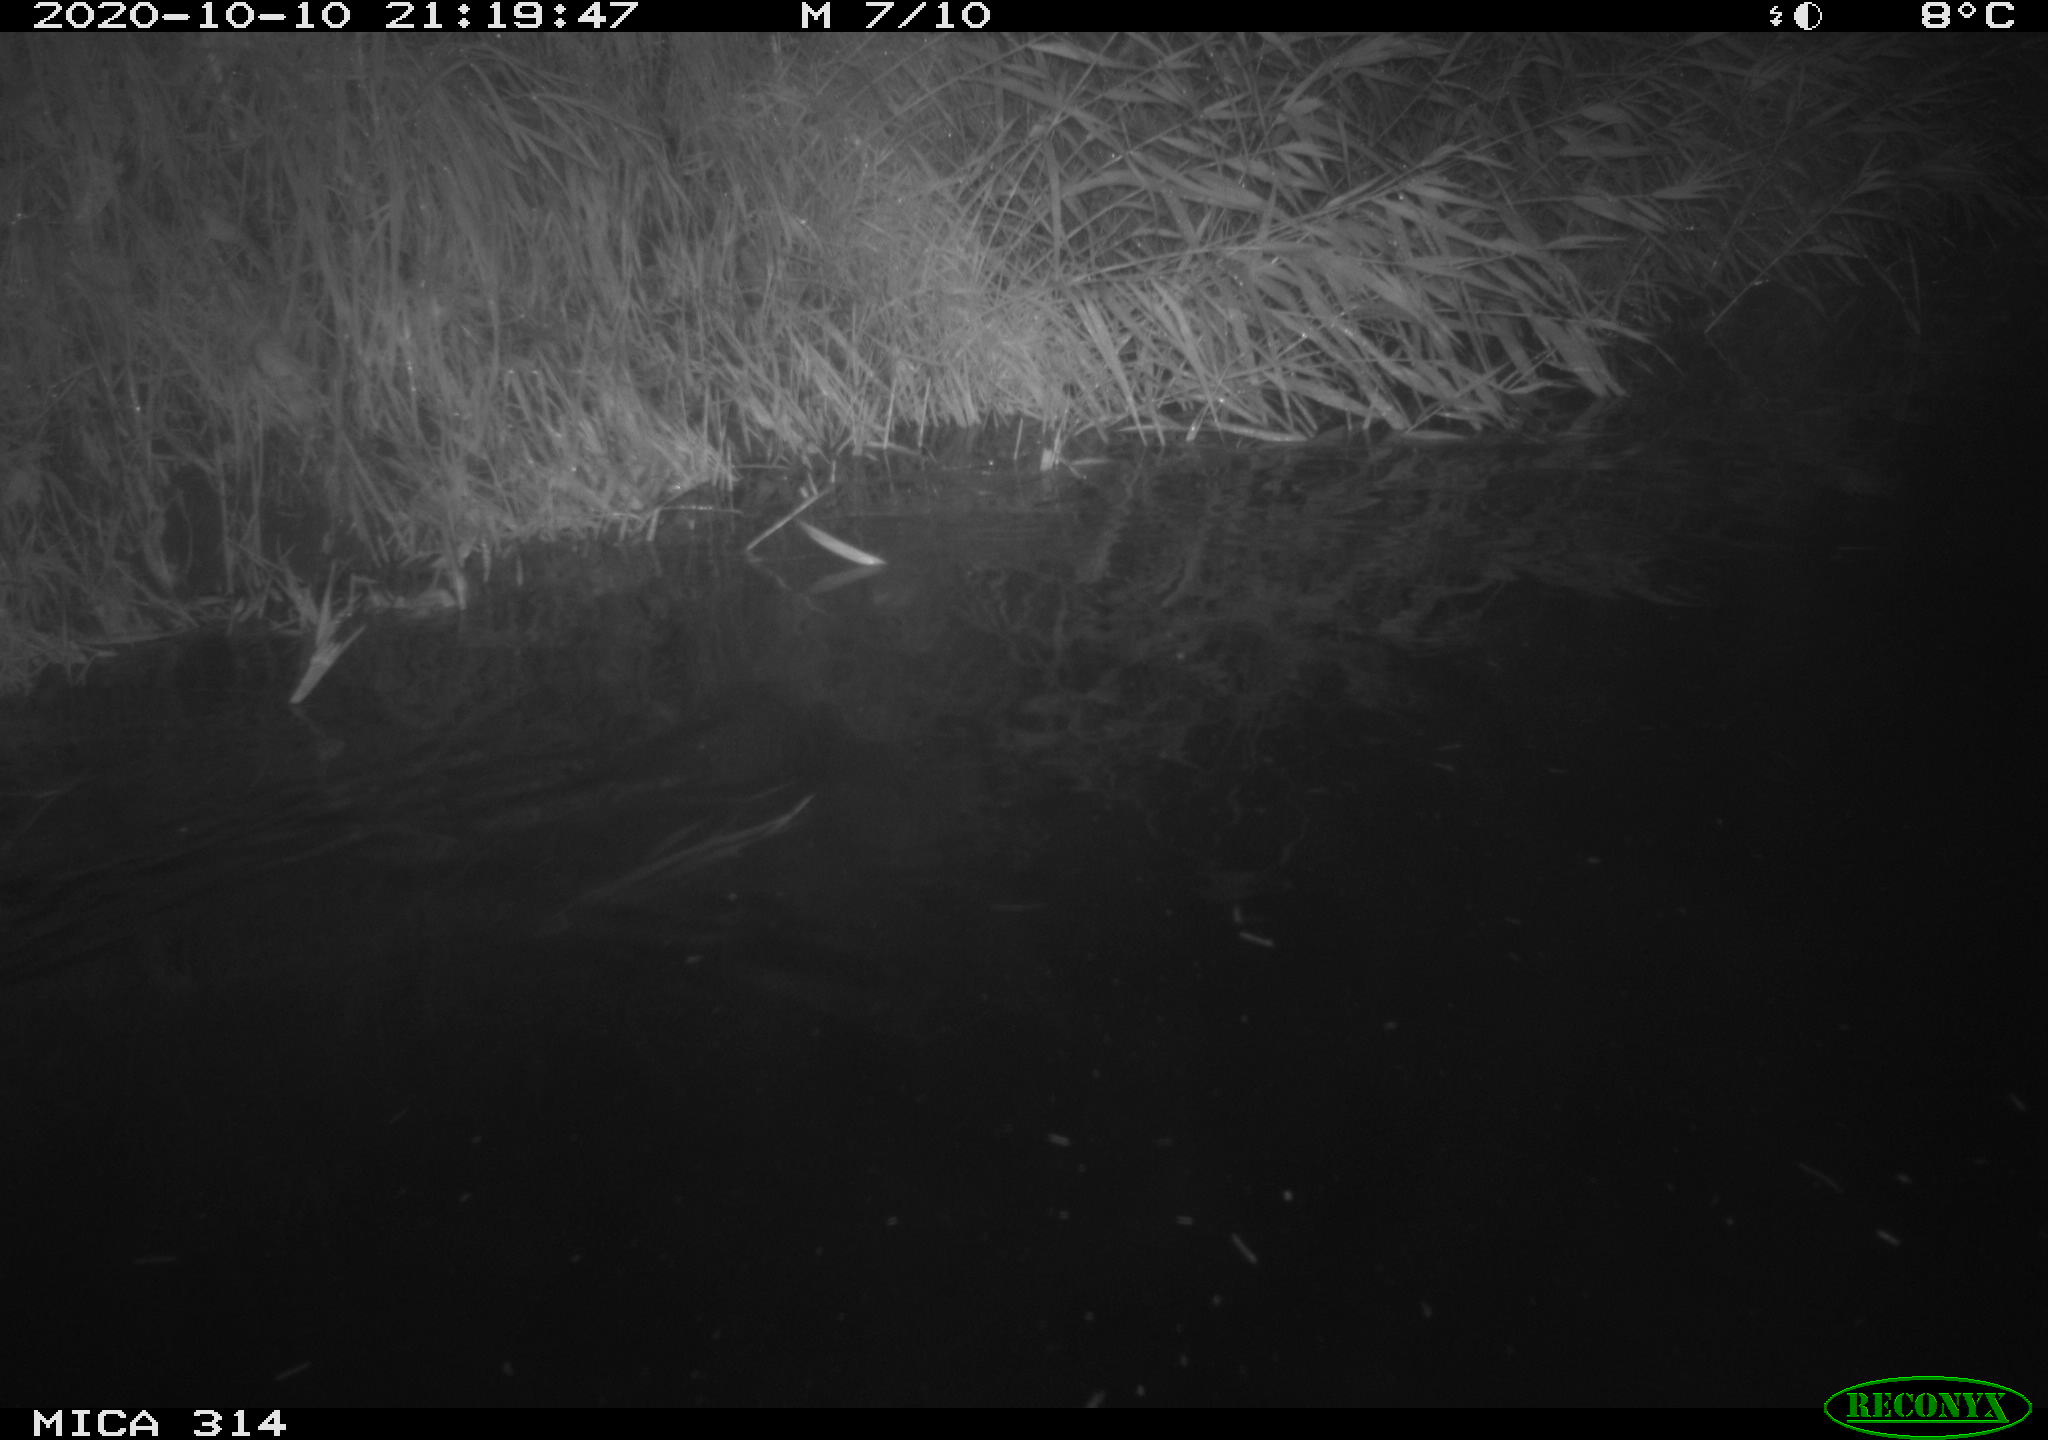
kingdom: Animalia
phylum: Chordata
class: Mammalia
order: Rodentia
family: Muridae
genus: Rattus
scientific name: Rattus norvegicus
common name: Brown rat
